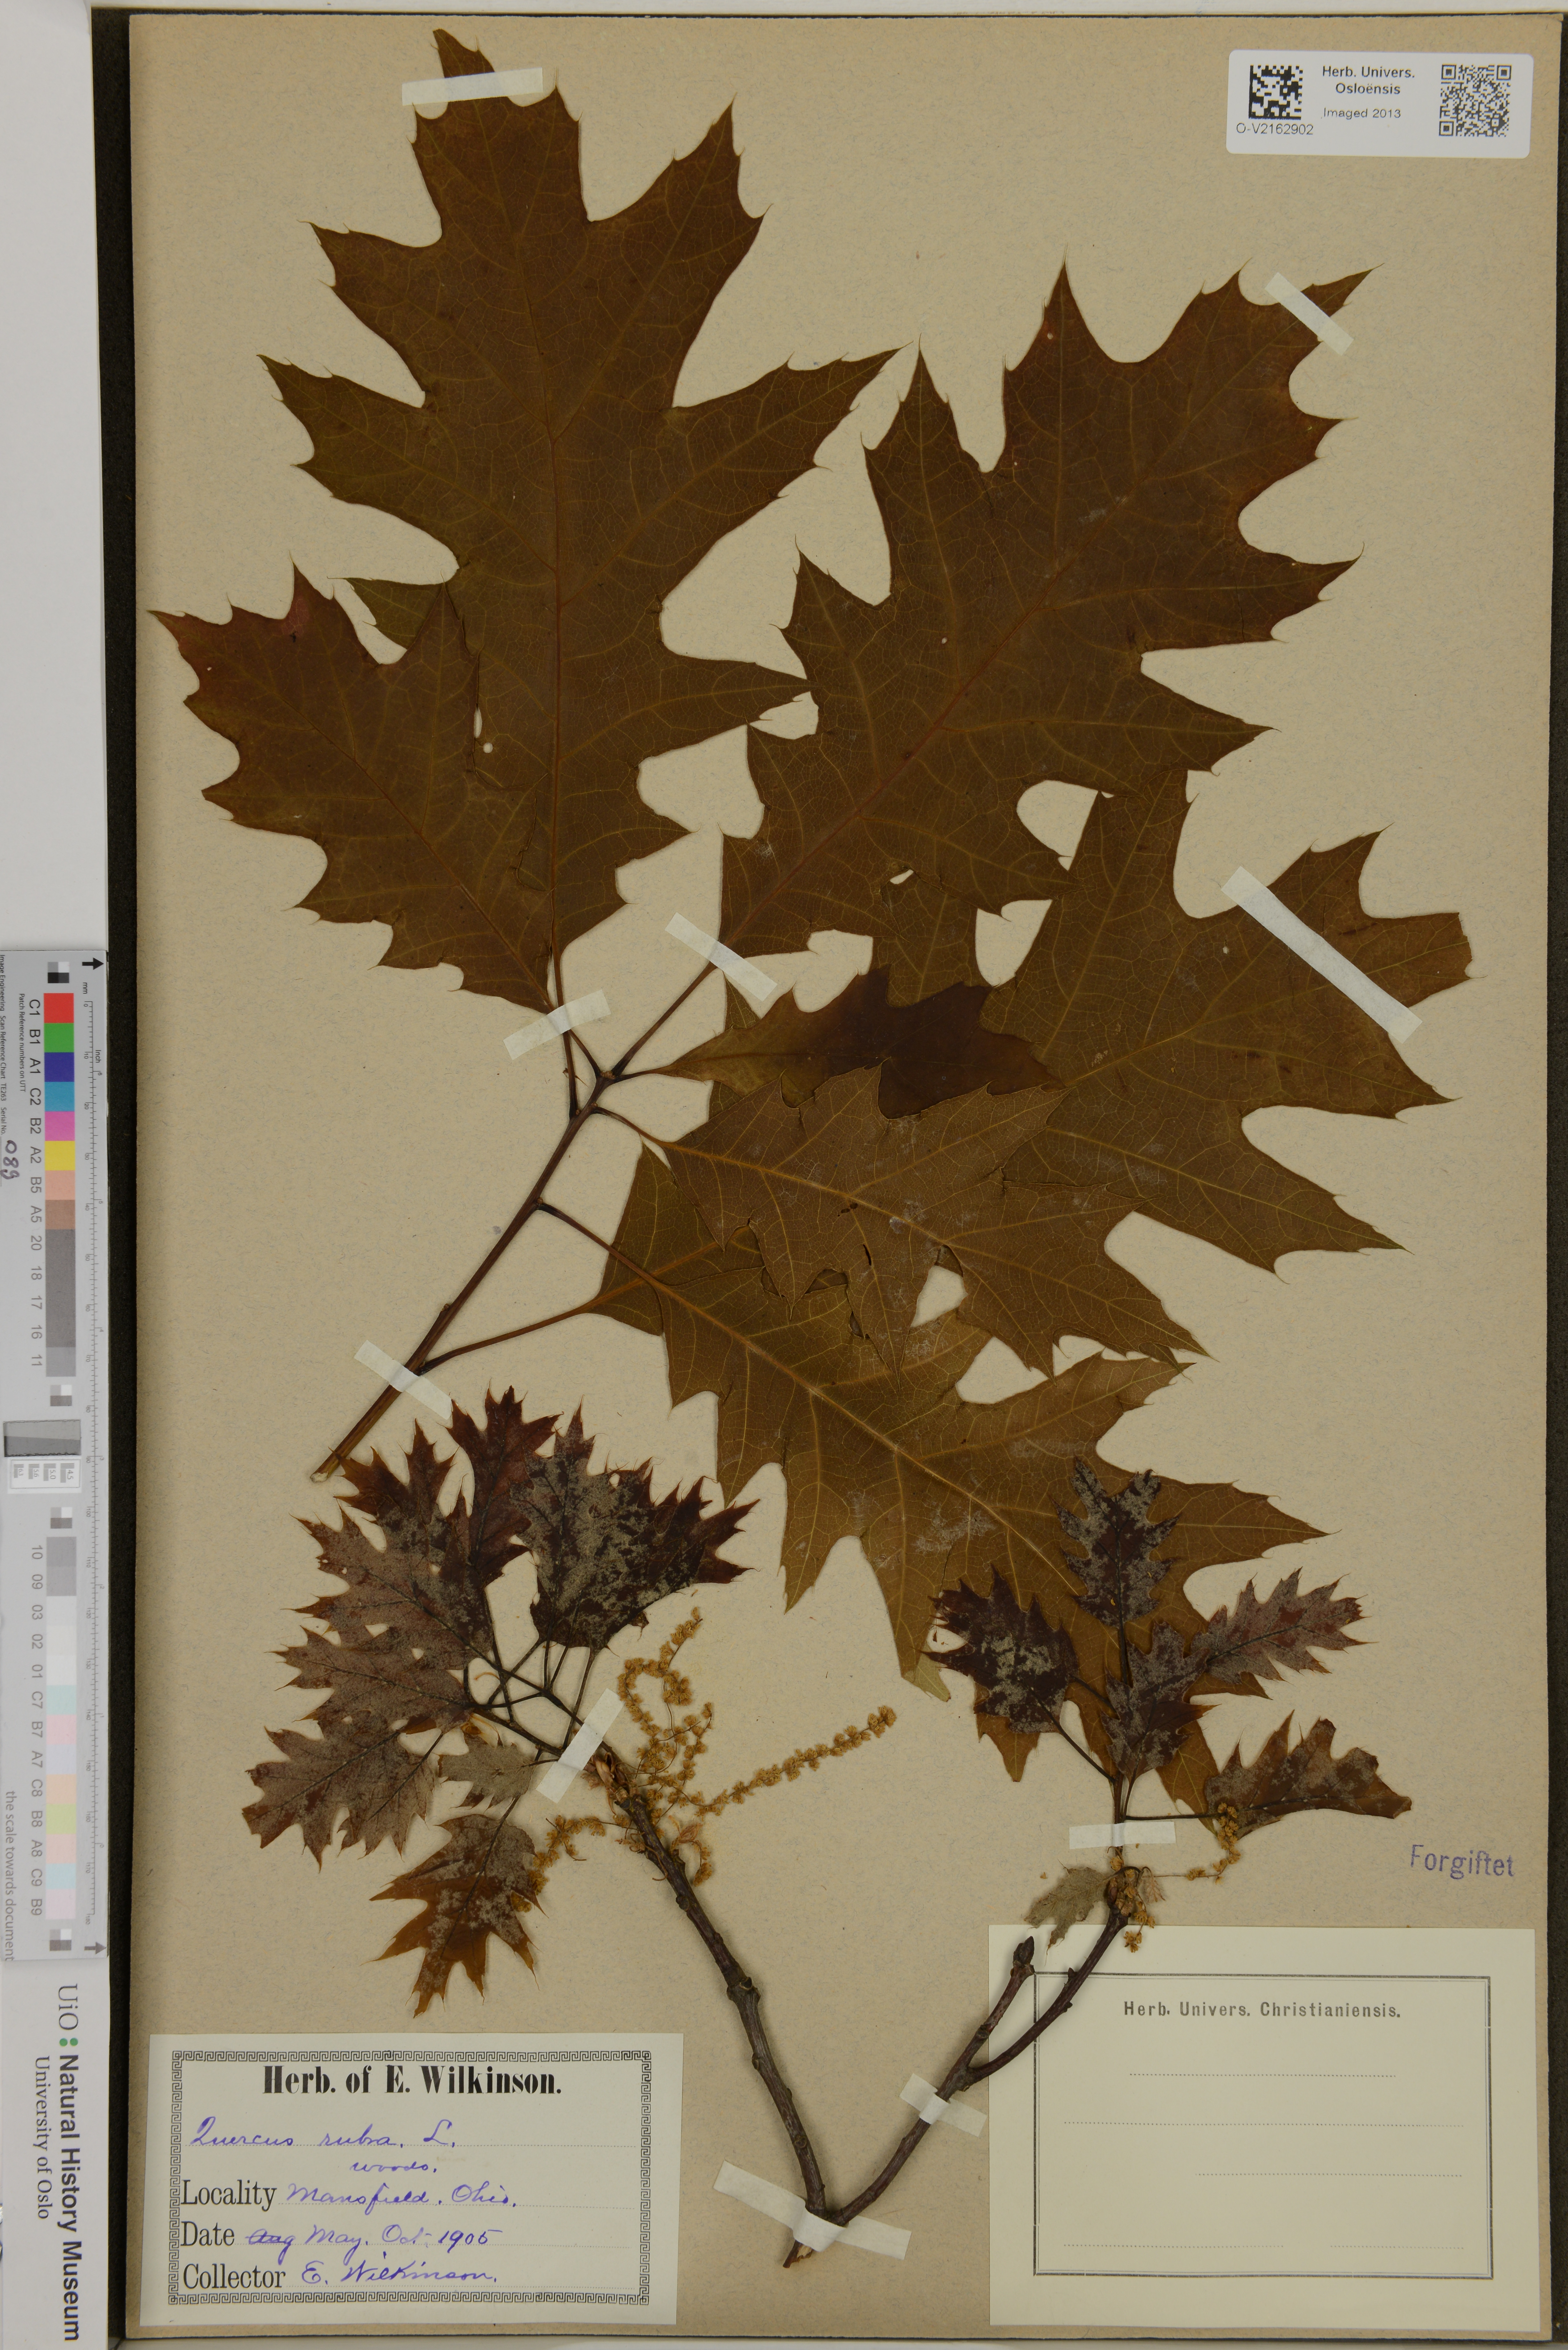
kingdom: Plantae
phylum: Tracheophyta
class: Magnoliopsida
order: Fagales
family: Fagaceae
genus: Quercus
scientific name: Quercus rubra
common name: Red oak
